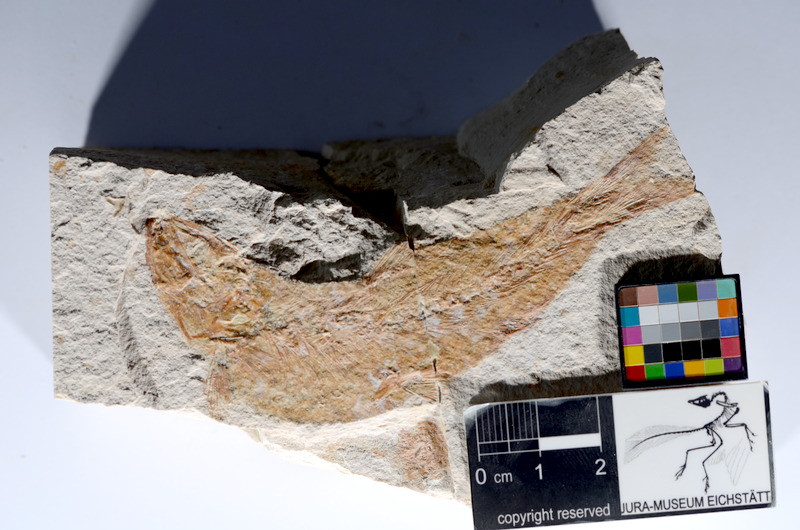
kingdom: Animalia
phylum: Chordata
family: Ascalaboidae
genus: Tharsis
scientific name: Tharsis dubius
